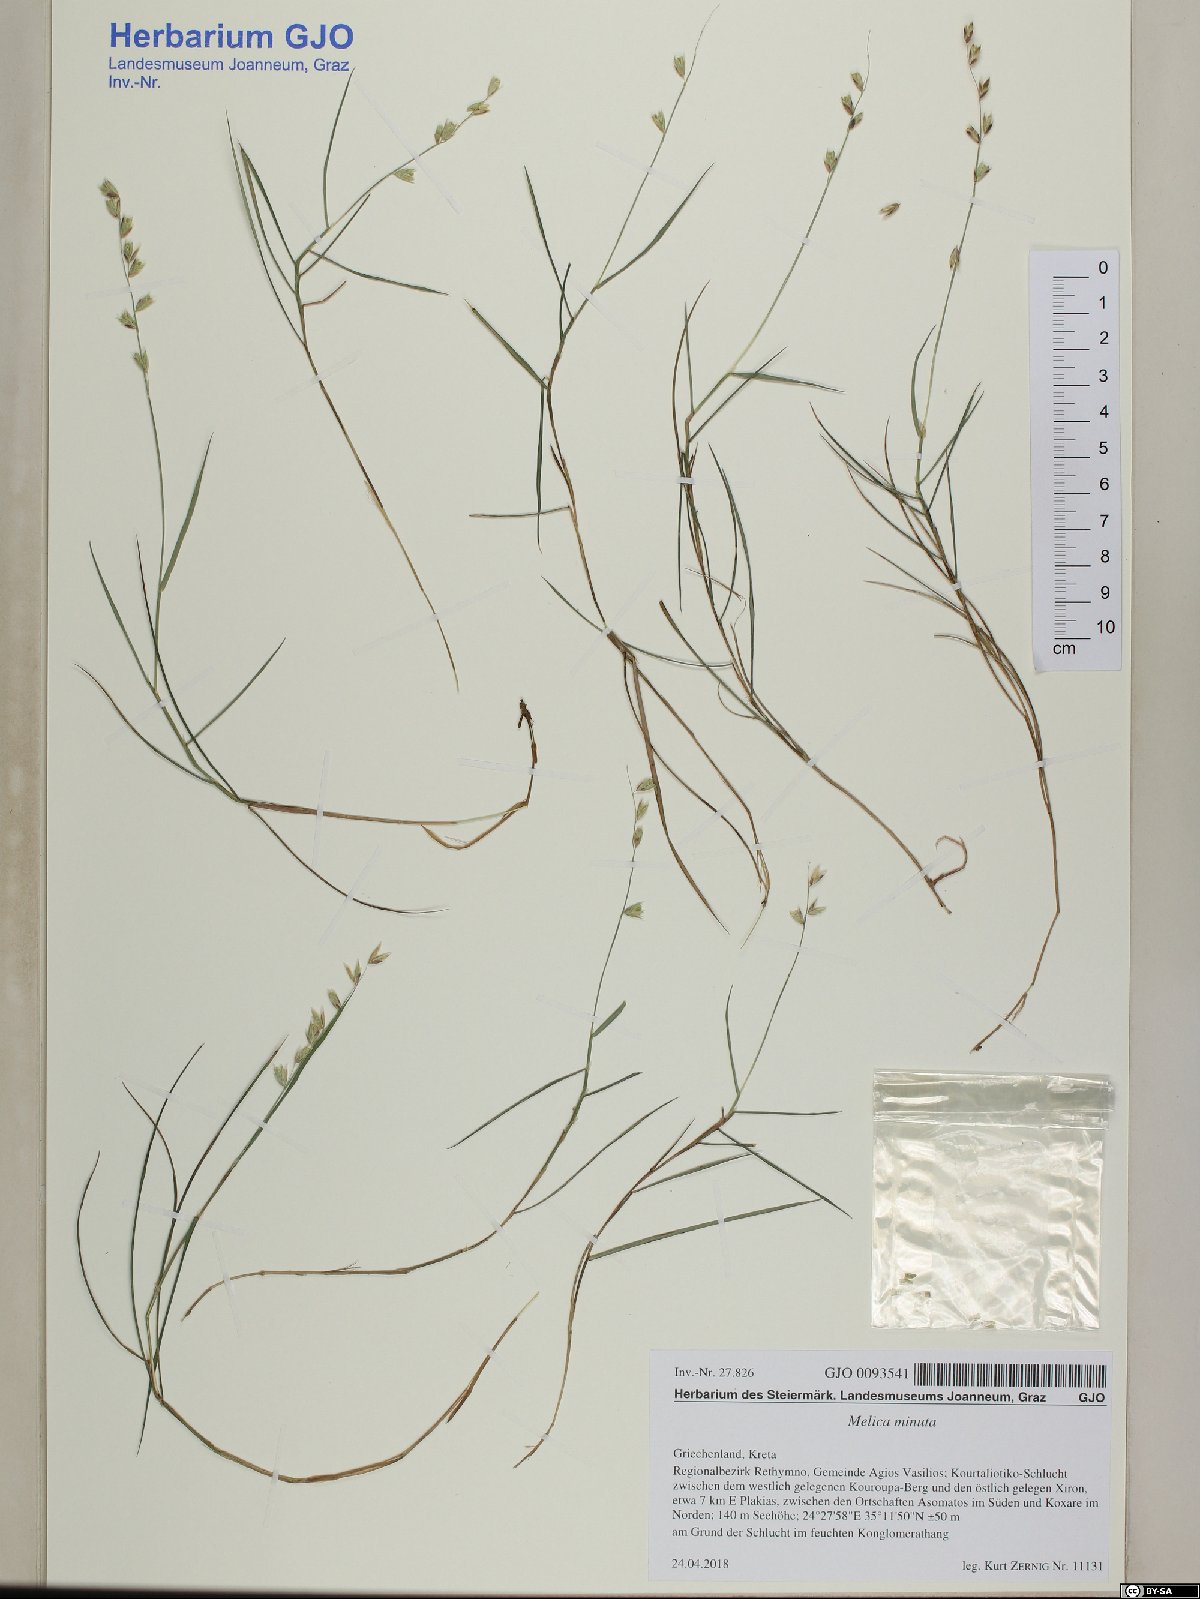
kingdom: Plantae
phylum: Tracheophyta
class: Liliopsida
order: Poales
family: Poaceae
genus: Melica
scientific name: Melica minuta
